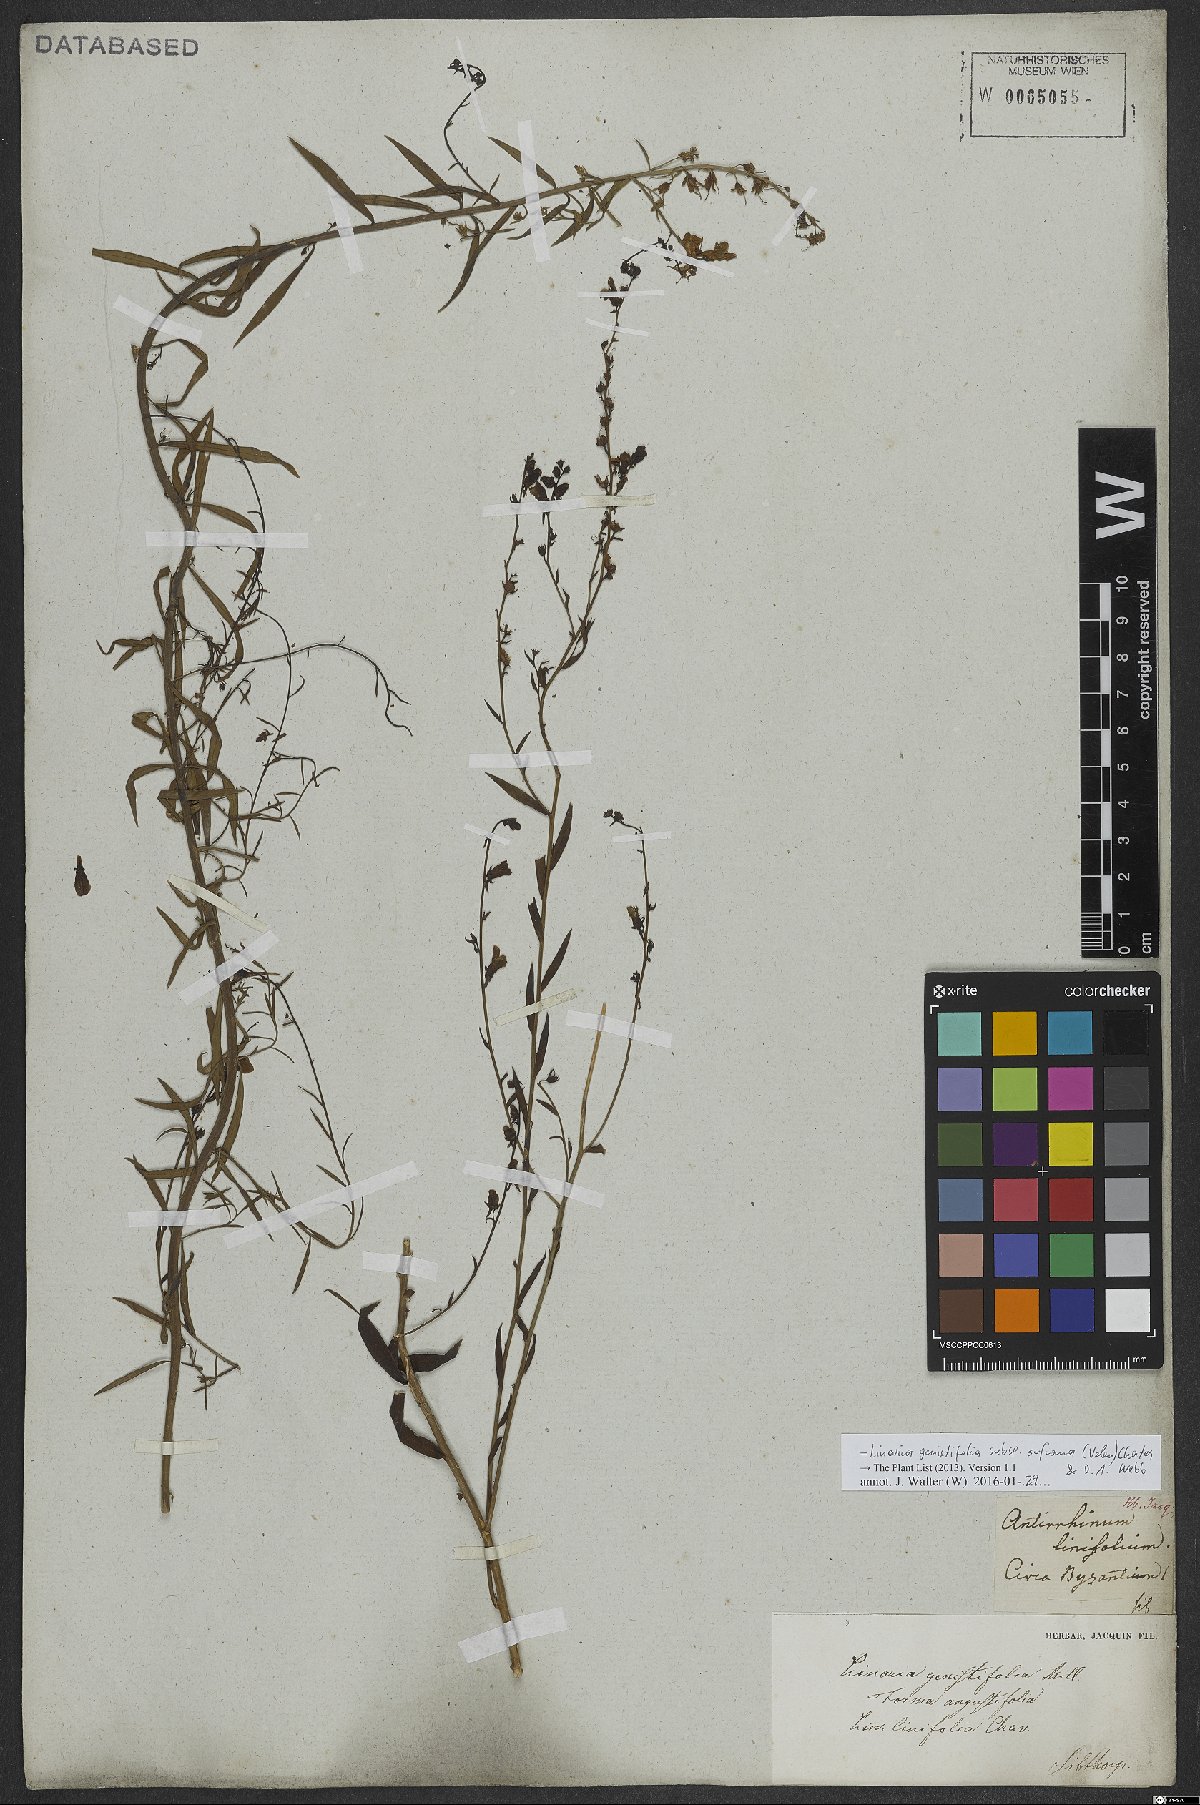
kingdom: Plantae
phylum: Tracheophyta
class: Magnoliopsida
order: Lamiales
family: Plantaginaceae
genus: Linaria
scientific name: Linaria genistifolia
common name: Broomleaf toadflax
